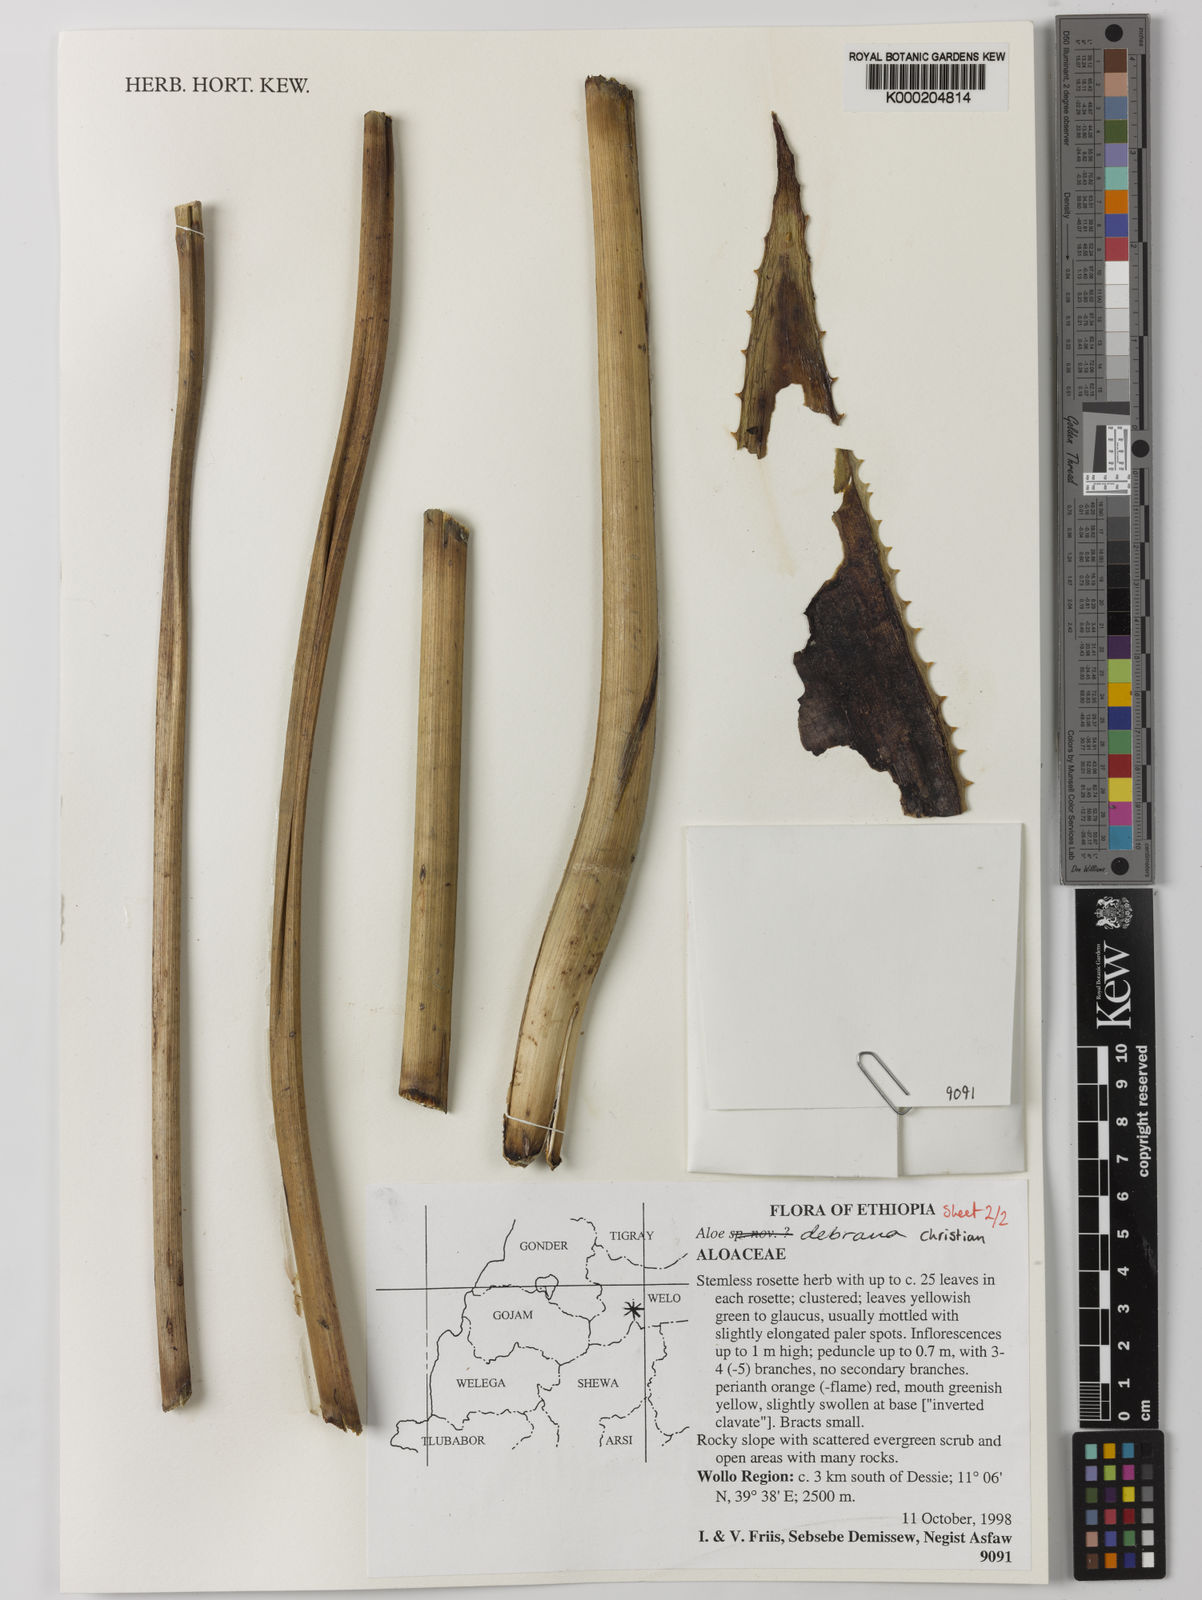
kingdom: Plantae
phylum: Tracheophyta
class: Liliopsida
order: Asparagales
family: Asphodelaceae
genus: Aloe
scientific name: Aloe debrana
